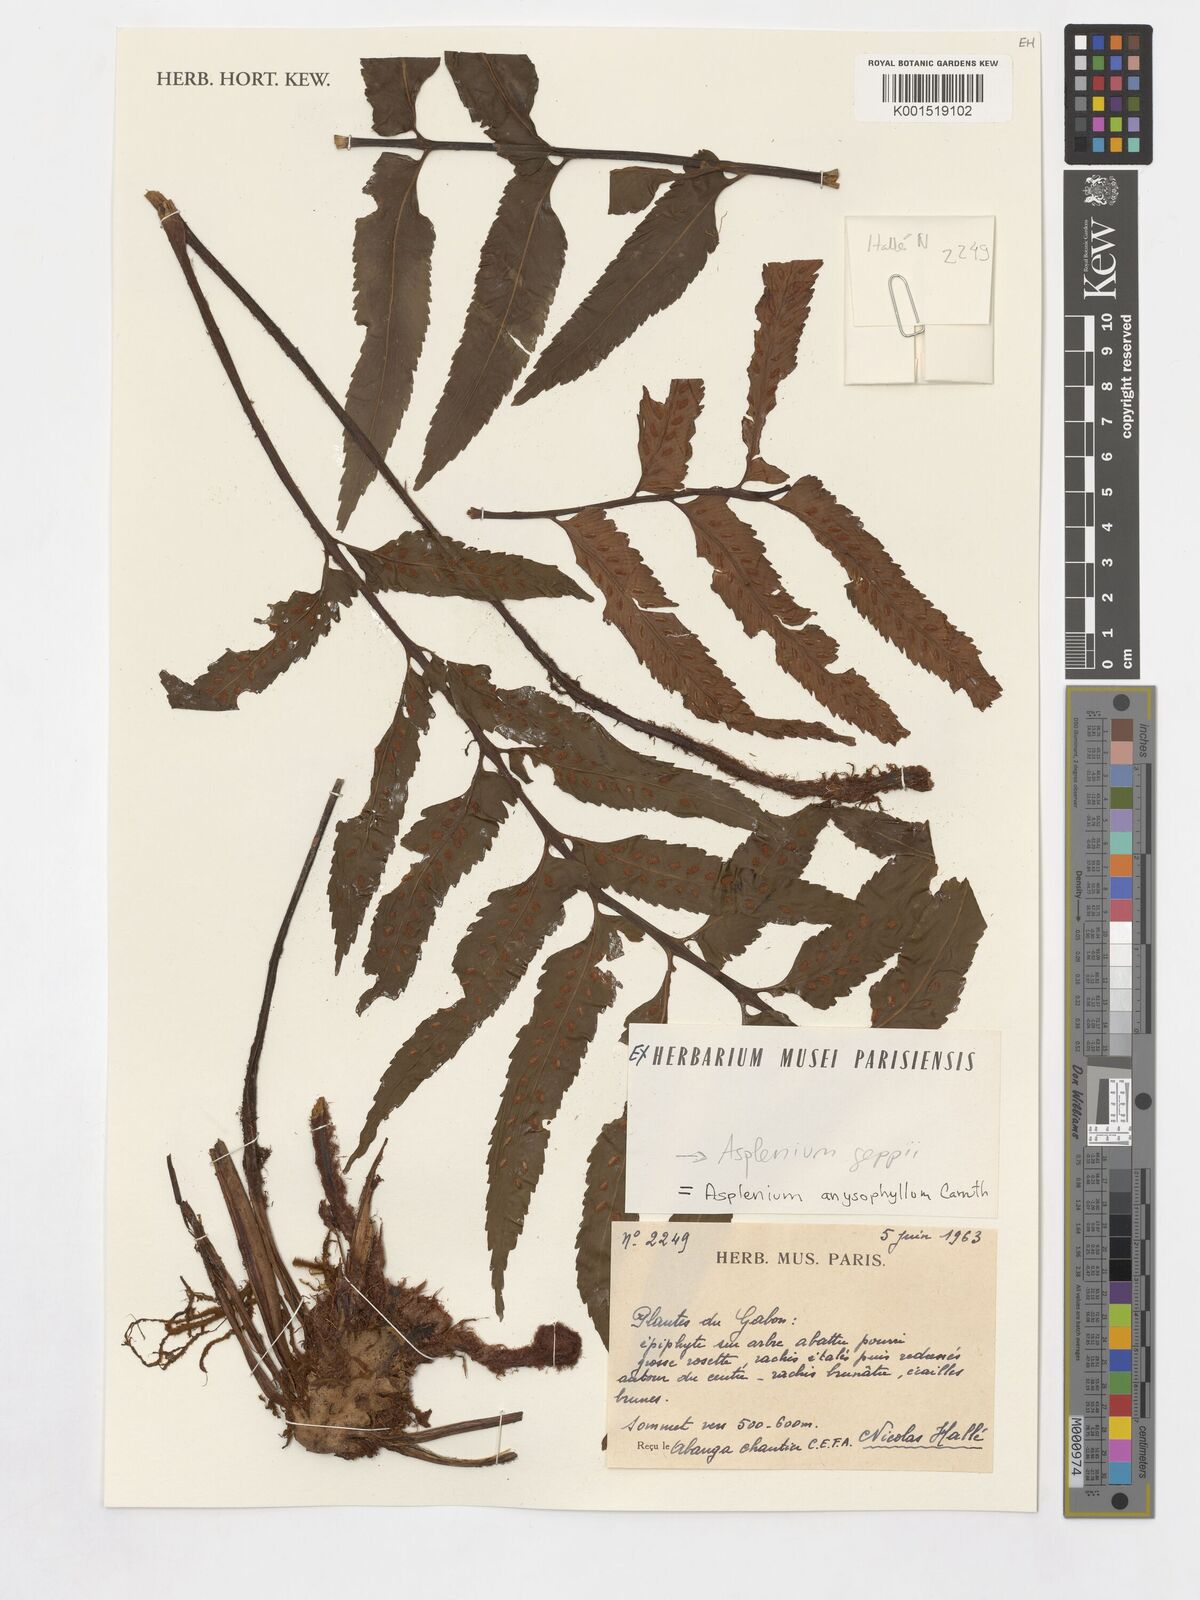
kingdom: Plantae
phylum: Tracheophyta
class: Polypodiopsida
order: Polypodiales
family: Aspleniaceae
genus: Asplenium
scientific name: Asplenium anisophyllum
